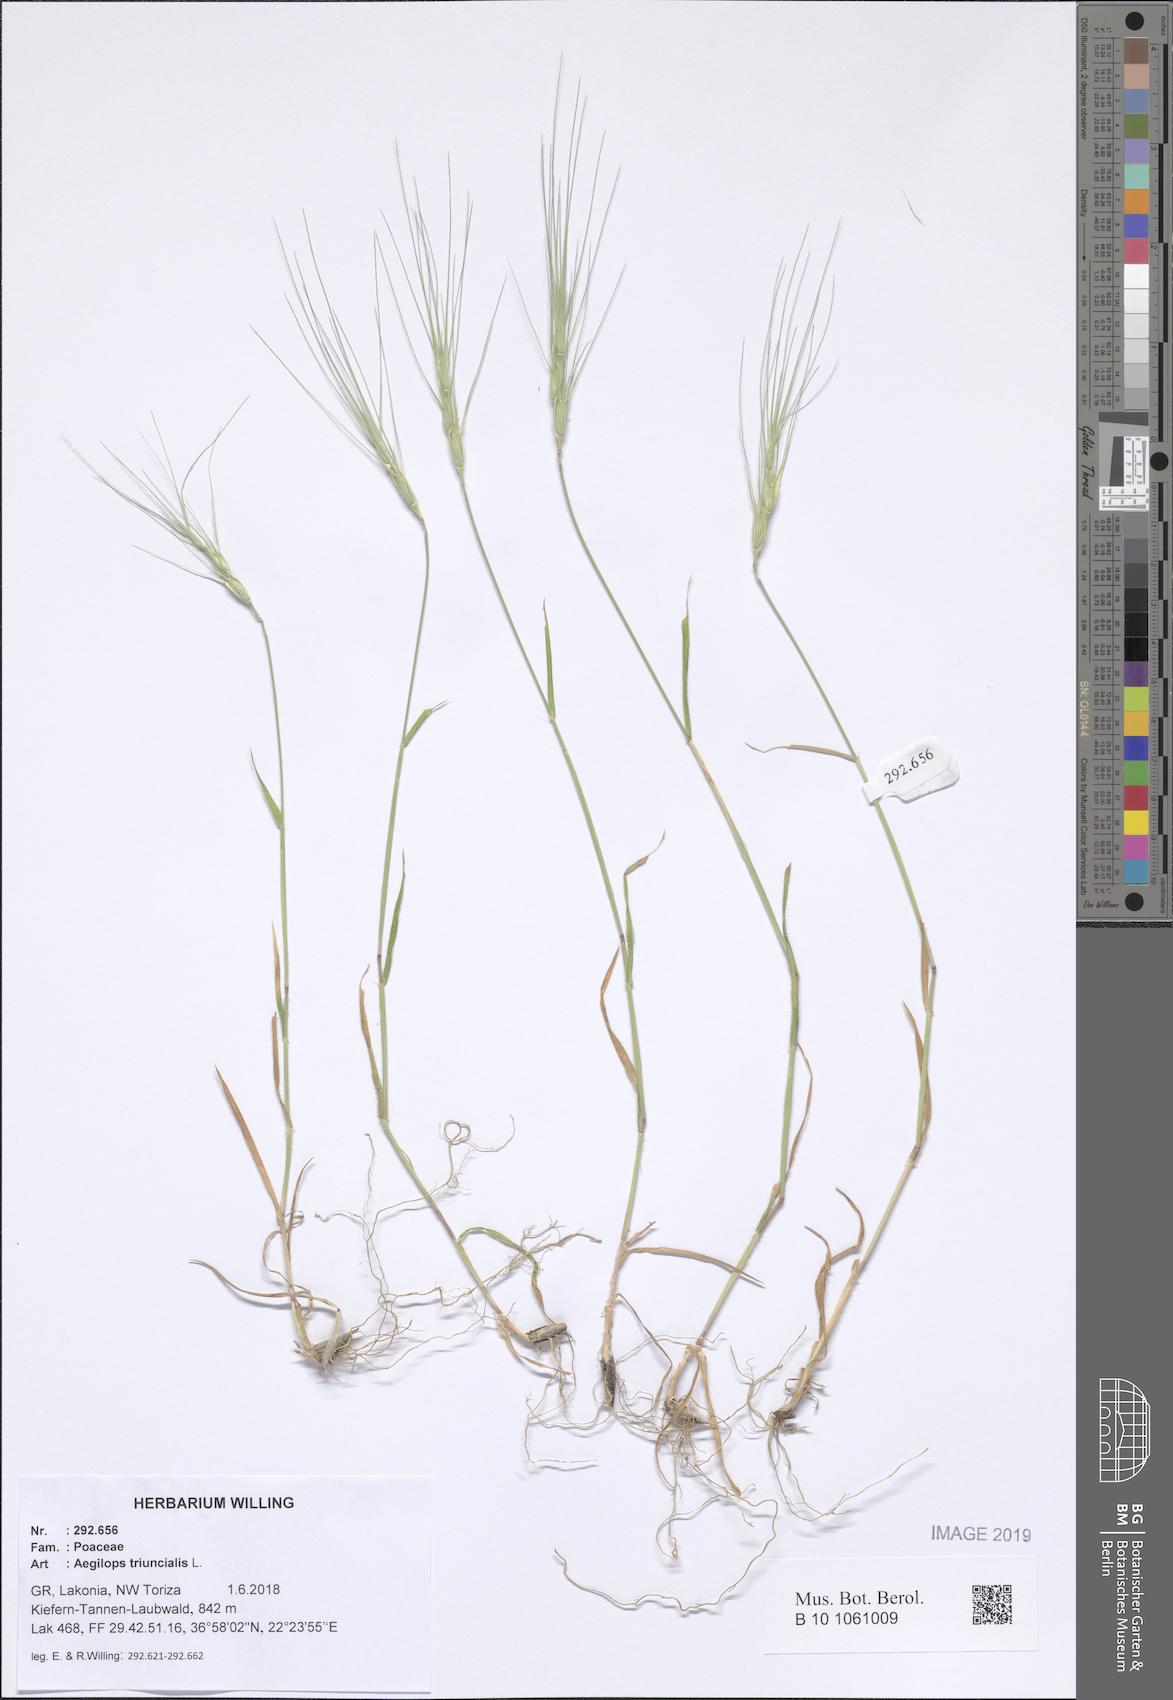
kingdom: Plantae
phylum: Tracheophyta
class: Liliopsida
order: Poales
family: Poaceae
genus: Aegilops
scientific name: Aegilops triuncialis
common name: Barb goat grass
